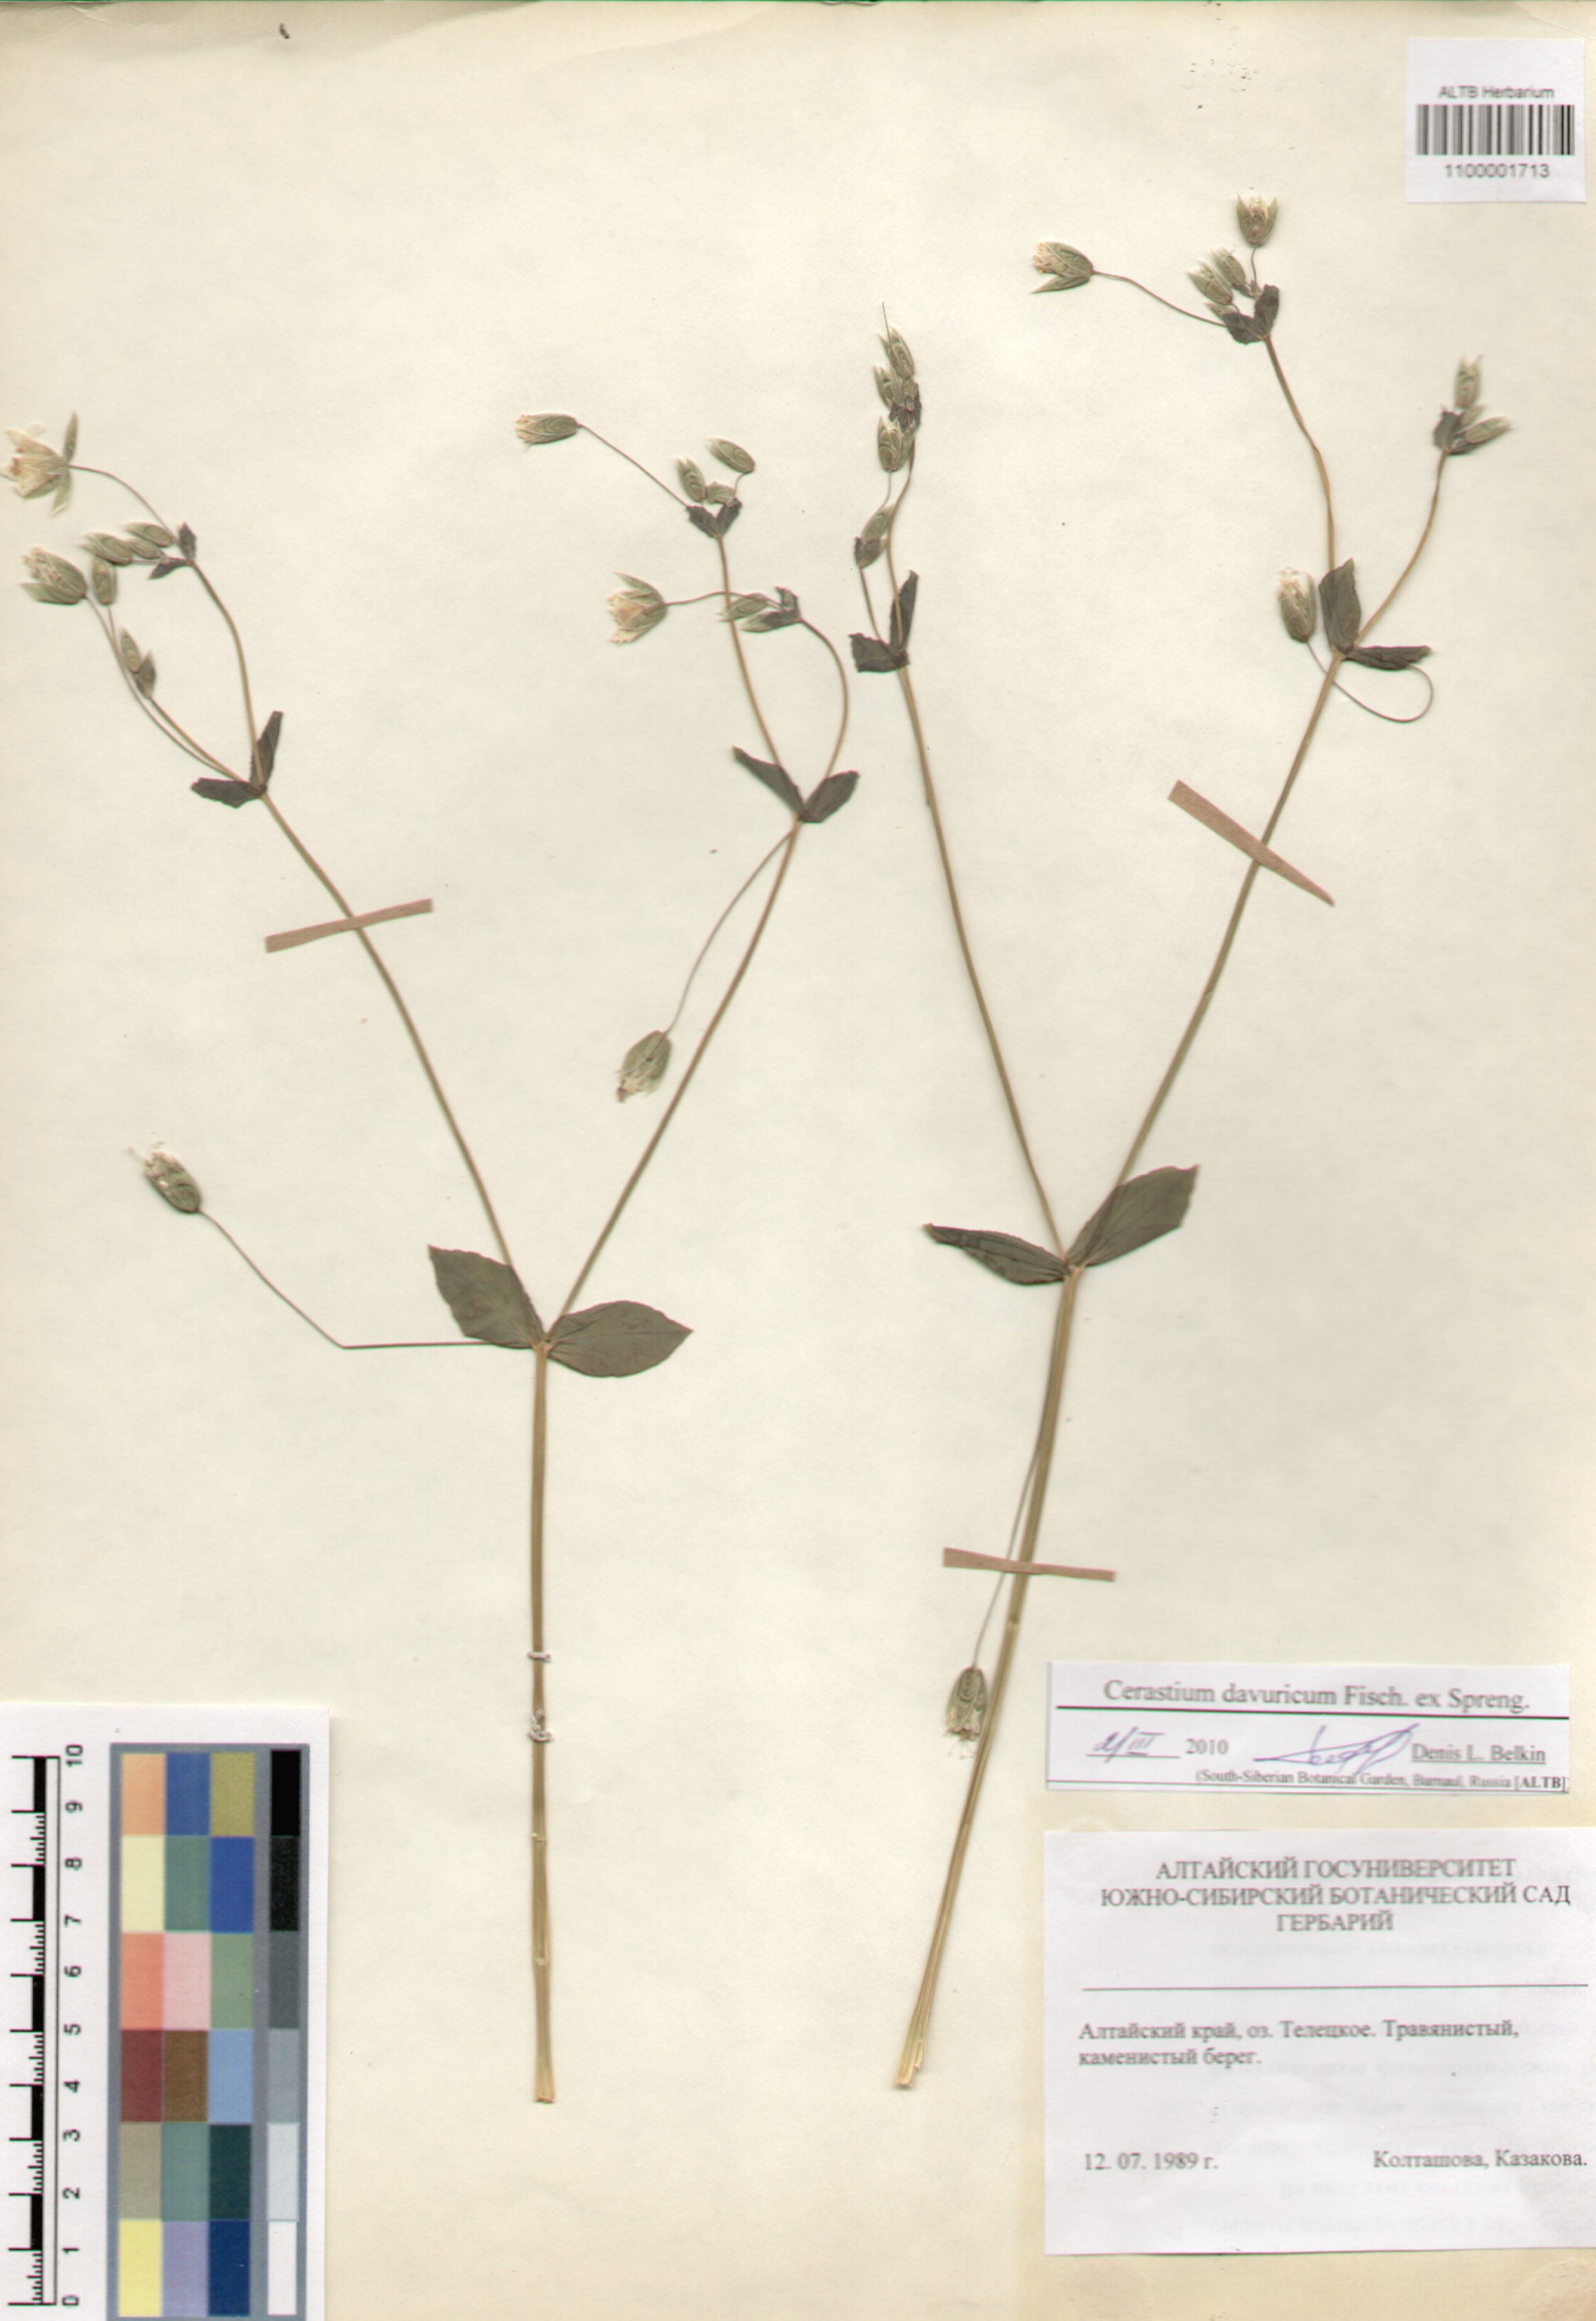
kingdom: Plantae
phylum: Tracheophyta
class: Magnoliopsida
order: Caryophyllales
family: Caryophyllaceae
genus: Dichodon
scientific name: Dichodon davuricum
